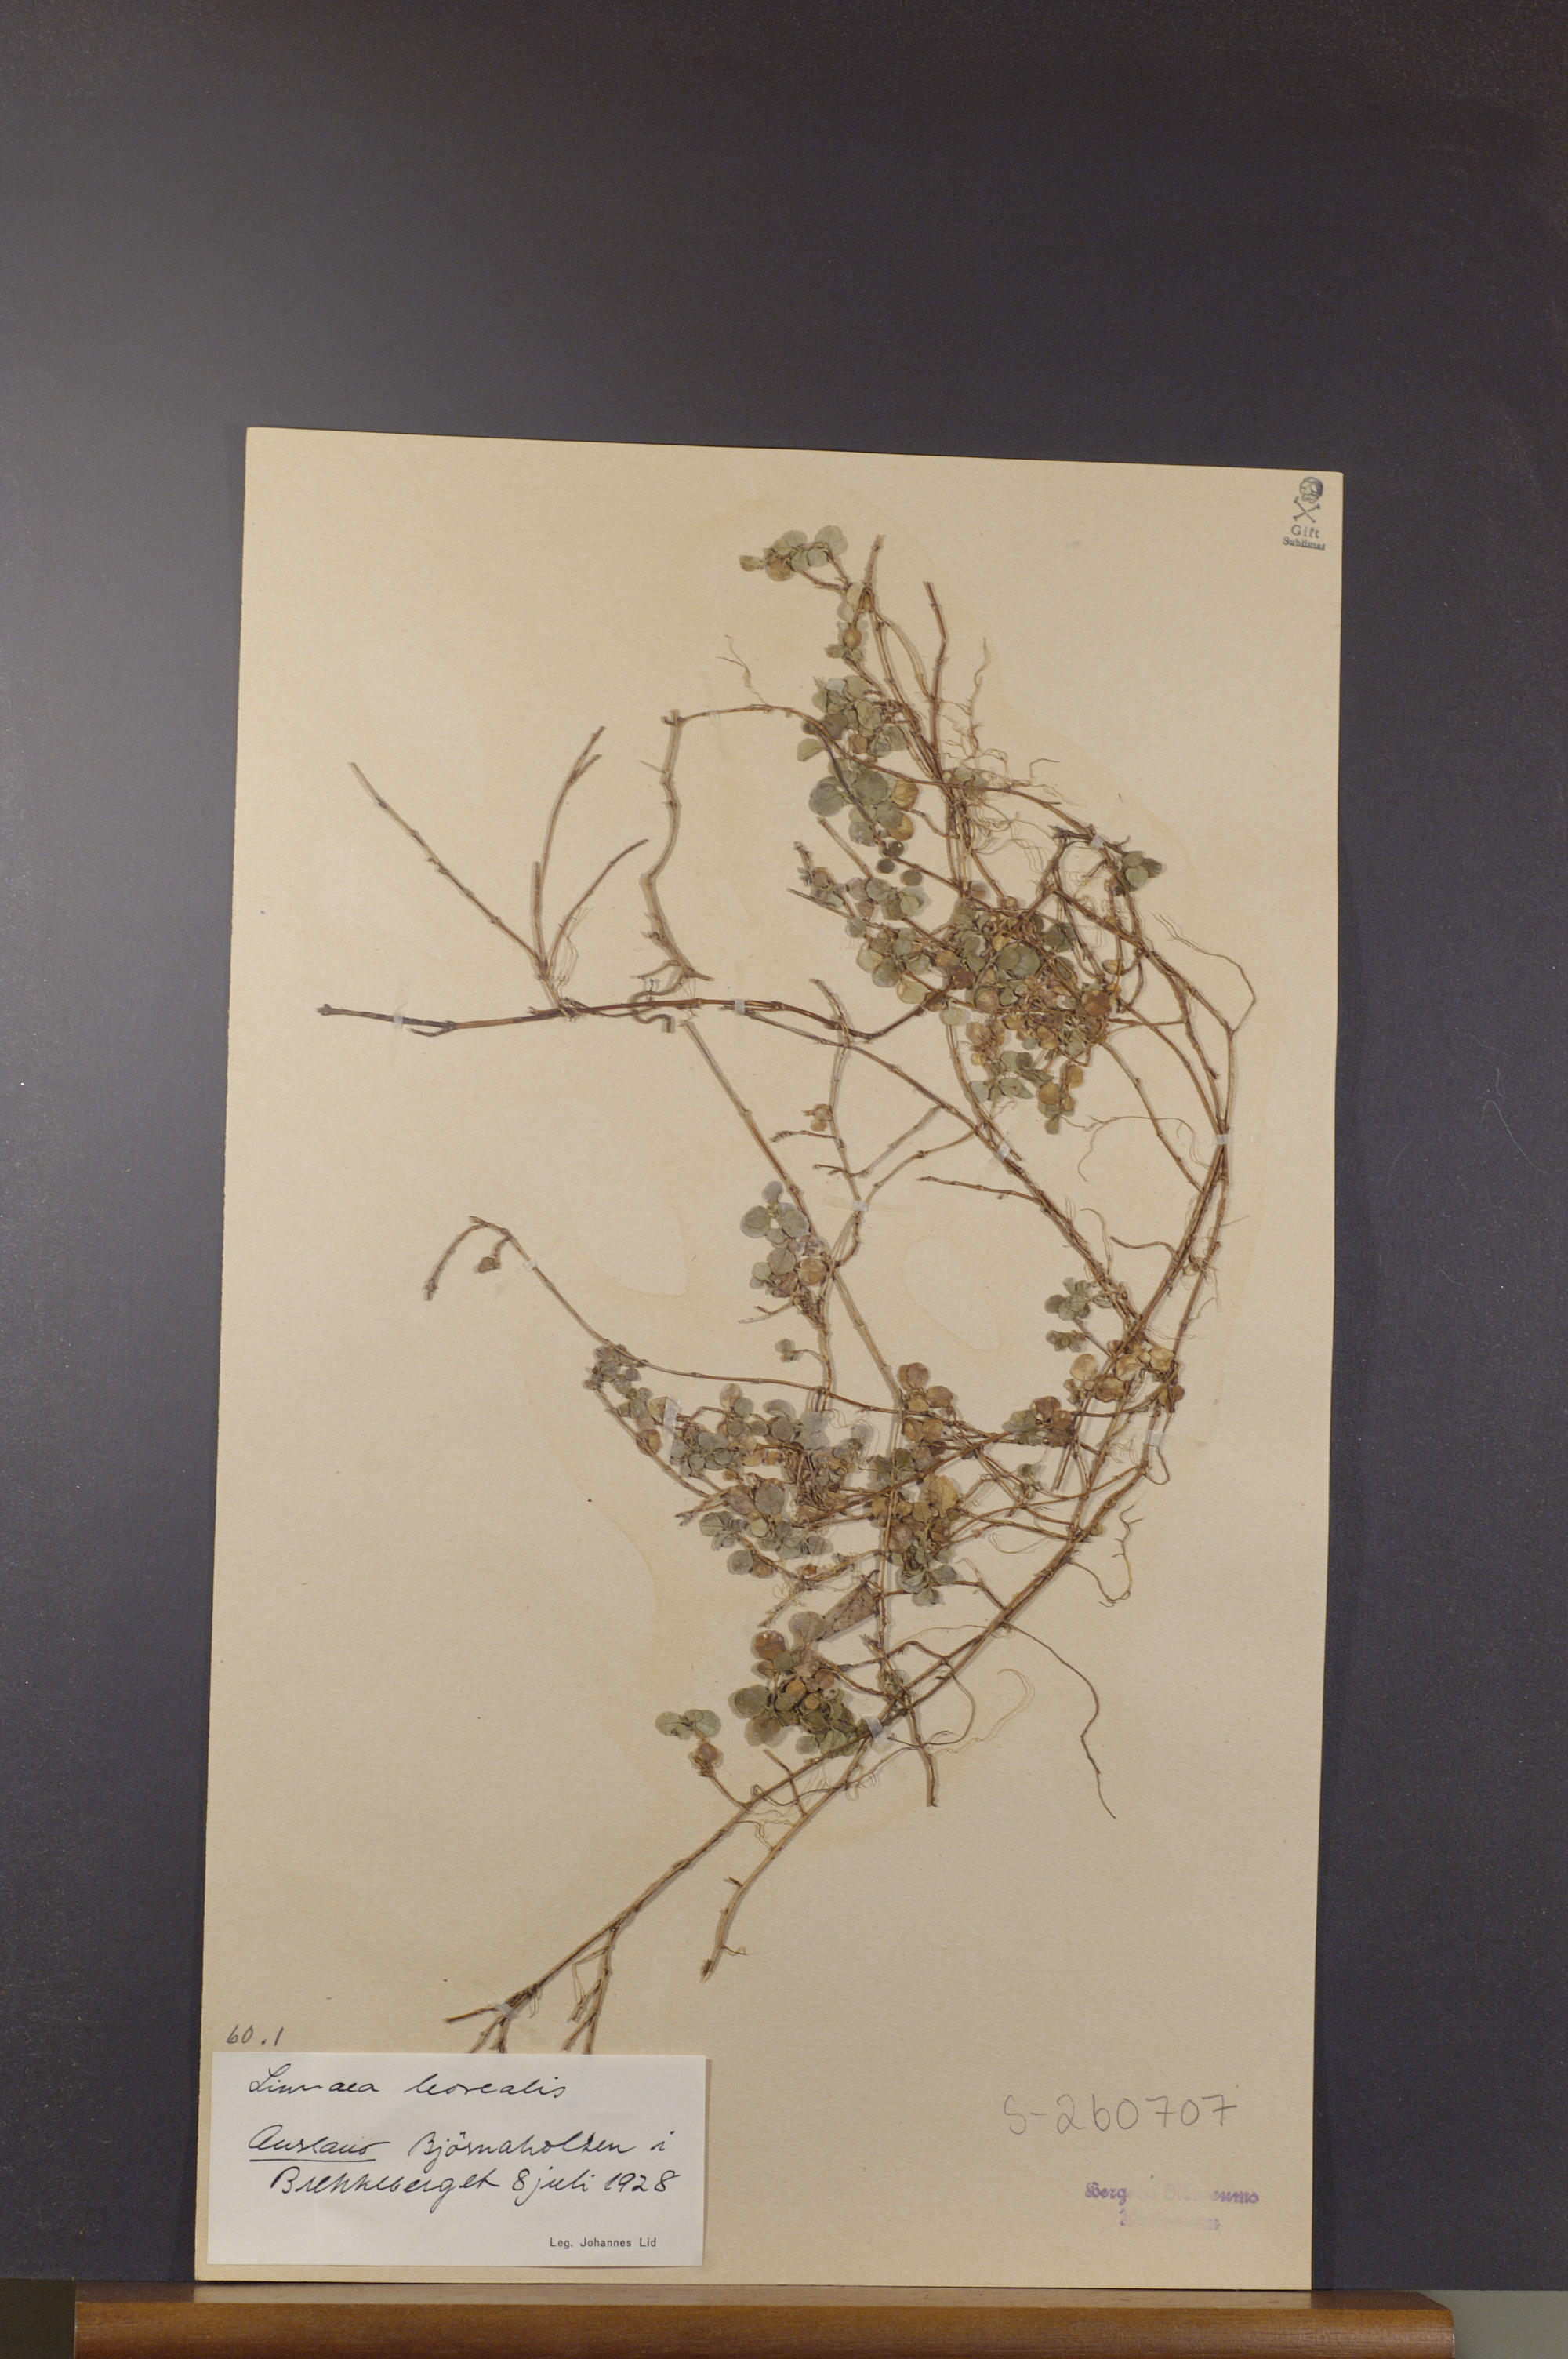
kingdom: Plantae
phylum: Tracheophyta
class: Magnoliopsida
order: Dipsacales
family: Caprifoliaceae
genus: Linnaea
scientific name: Linnaea borealis
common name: Twinflower
